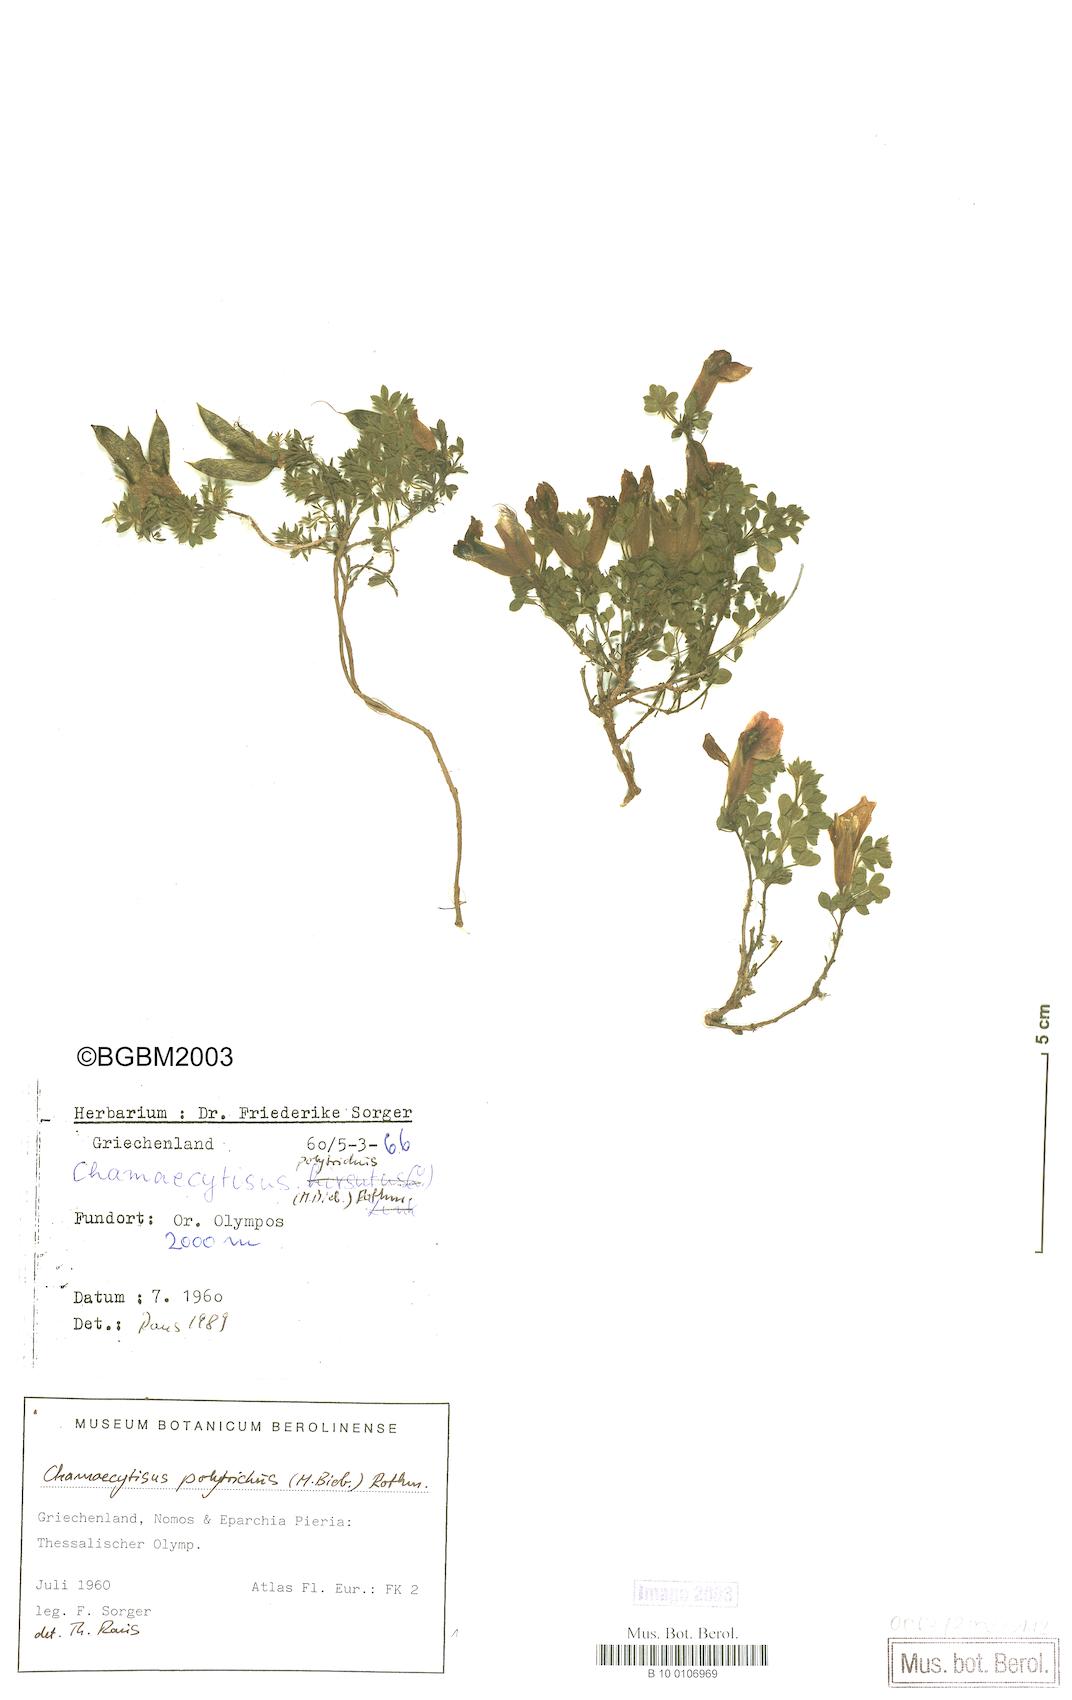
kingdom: Plantae
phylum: Tracheophyta
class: Magnoliopsida
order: Fabales
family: Fabaceae
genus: Chamaecytisus
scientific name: Chamaecytisus hirsutus
